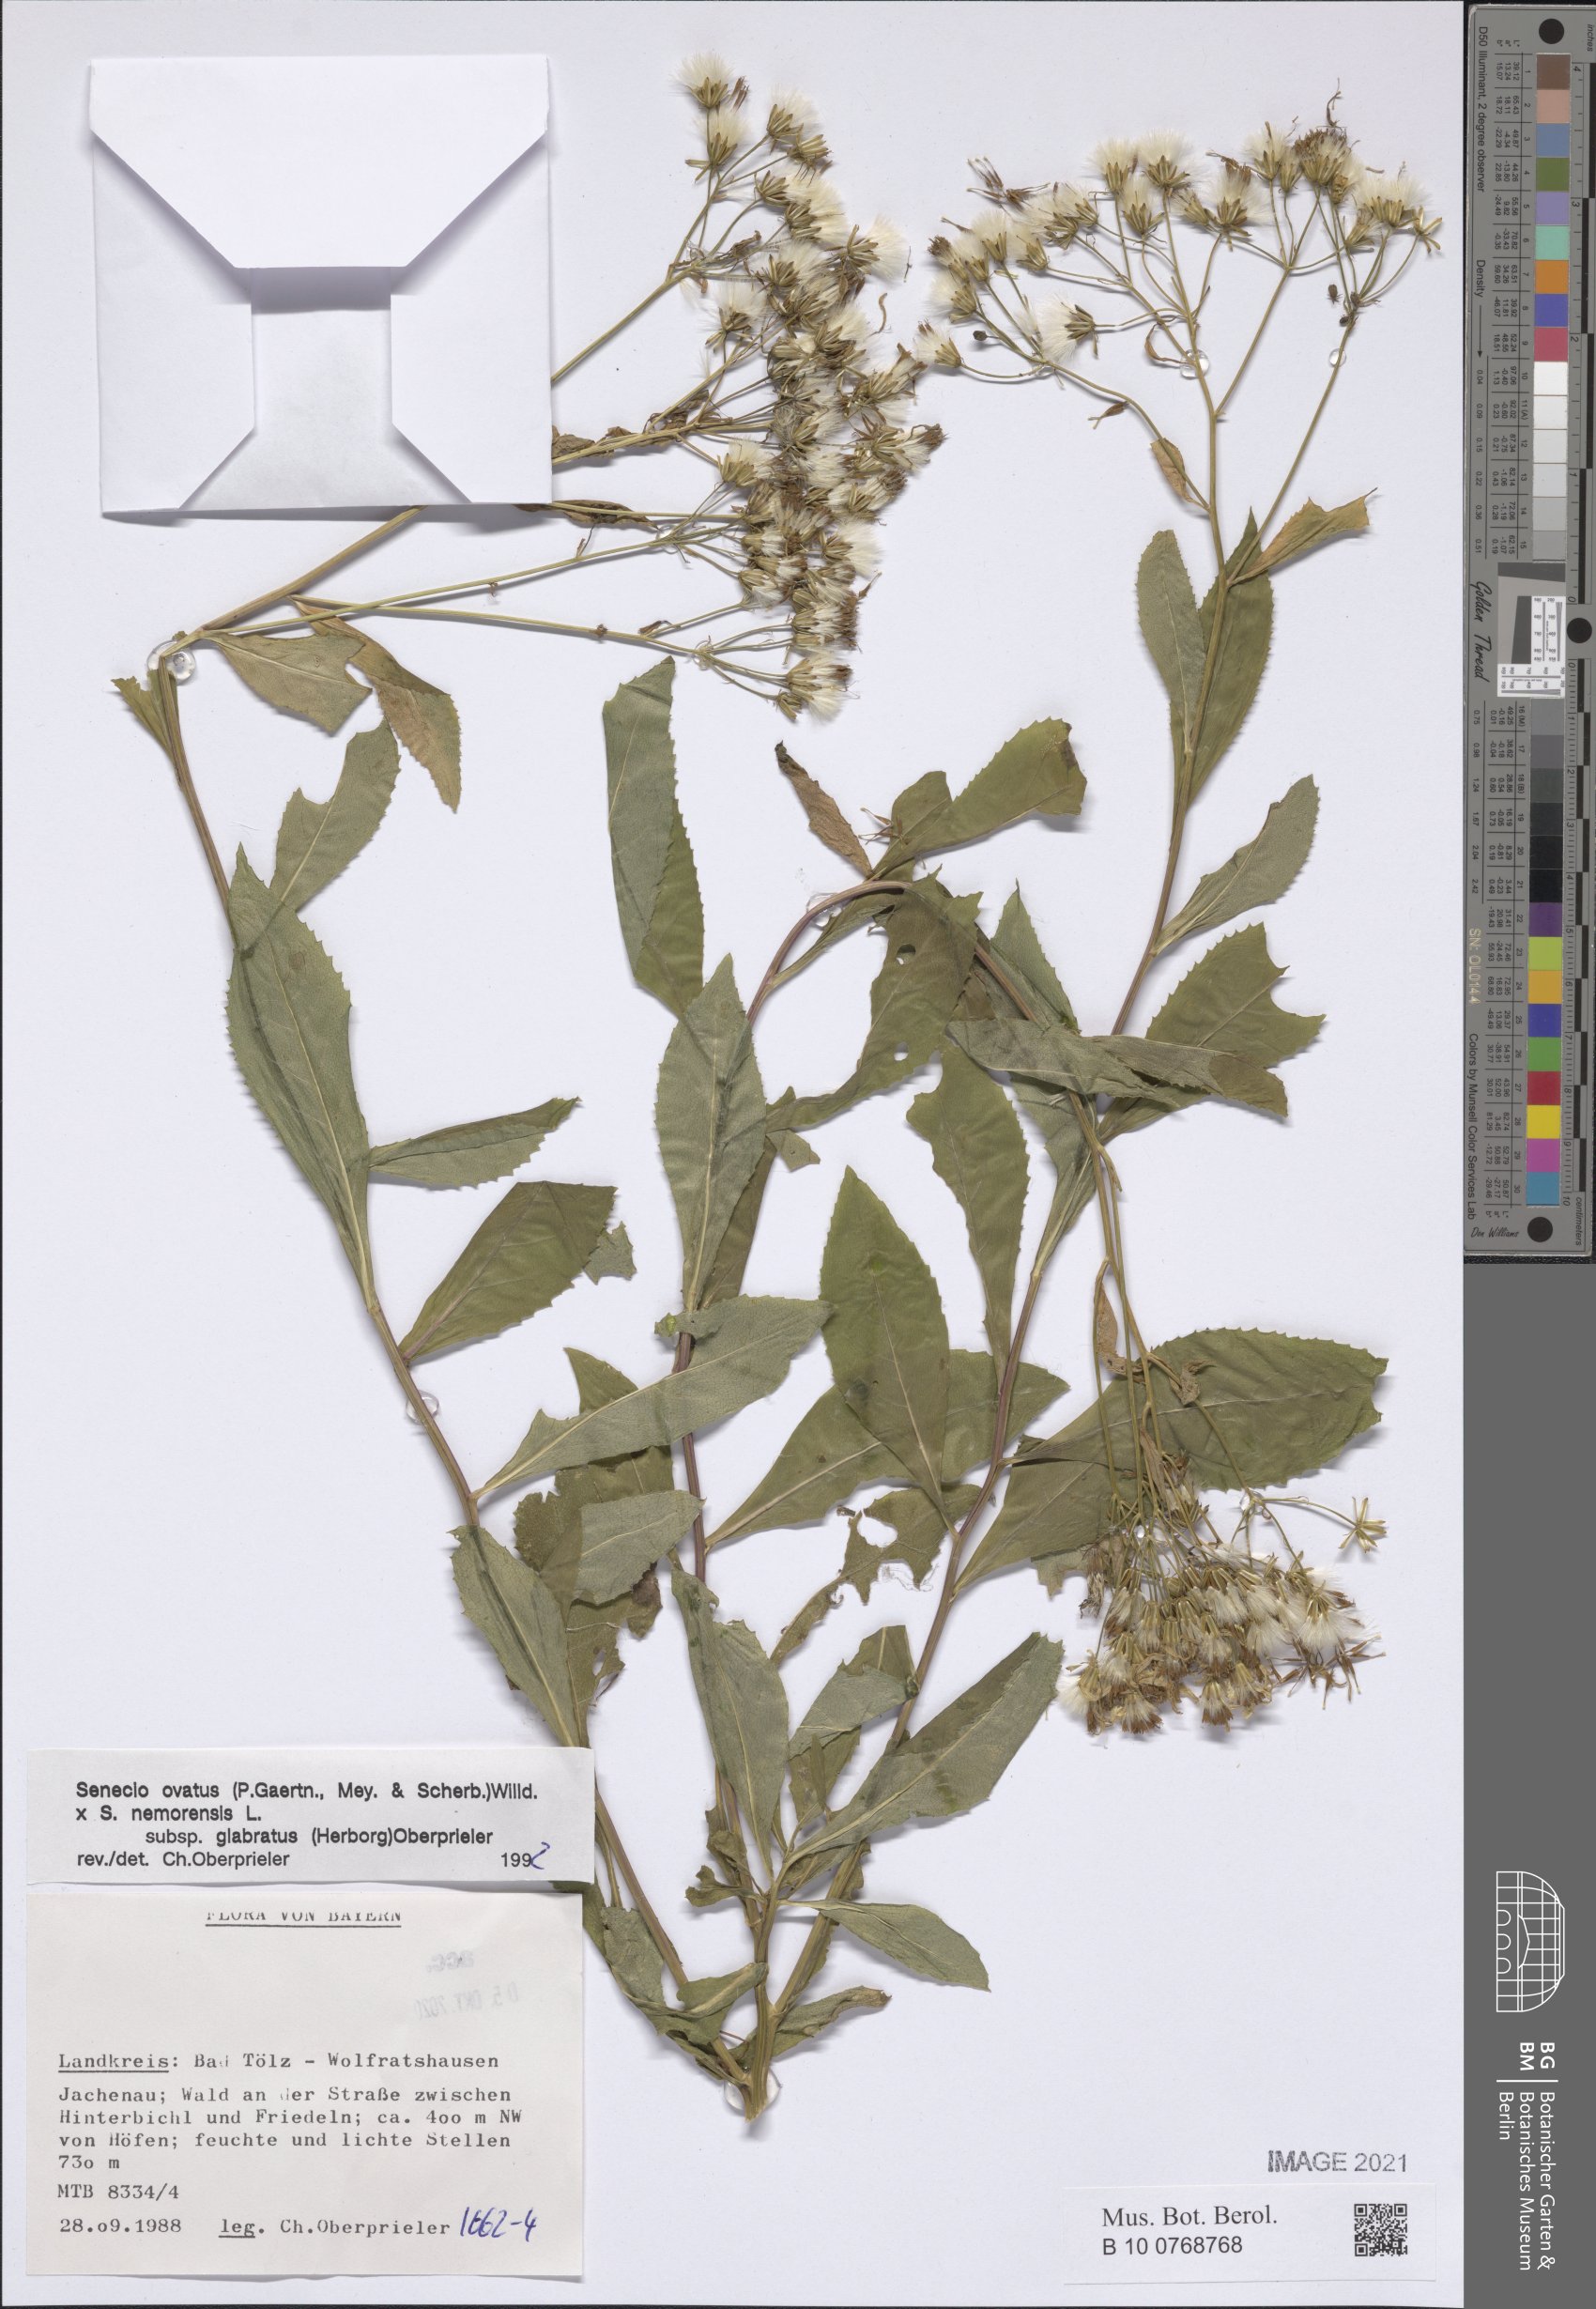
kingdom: Plantae
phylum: Tracheophyta
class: Magnoliopsida
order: Asterales
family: Asteraceae
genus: Senecio
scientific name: Senecio ovatus
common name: Wood ragwort
